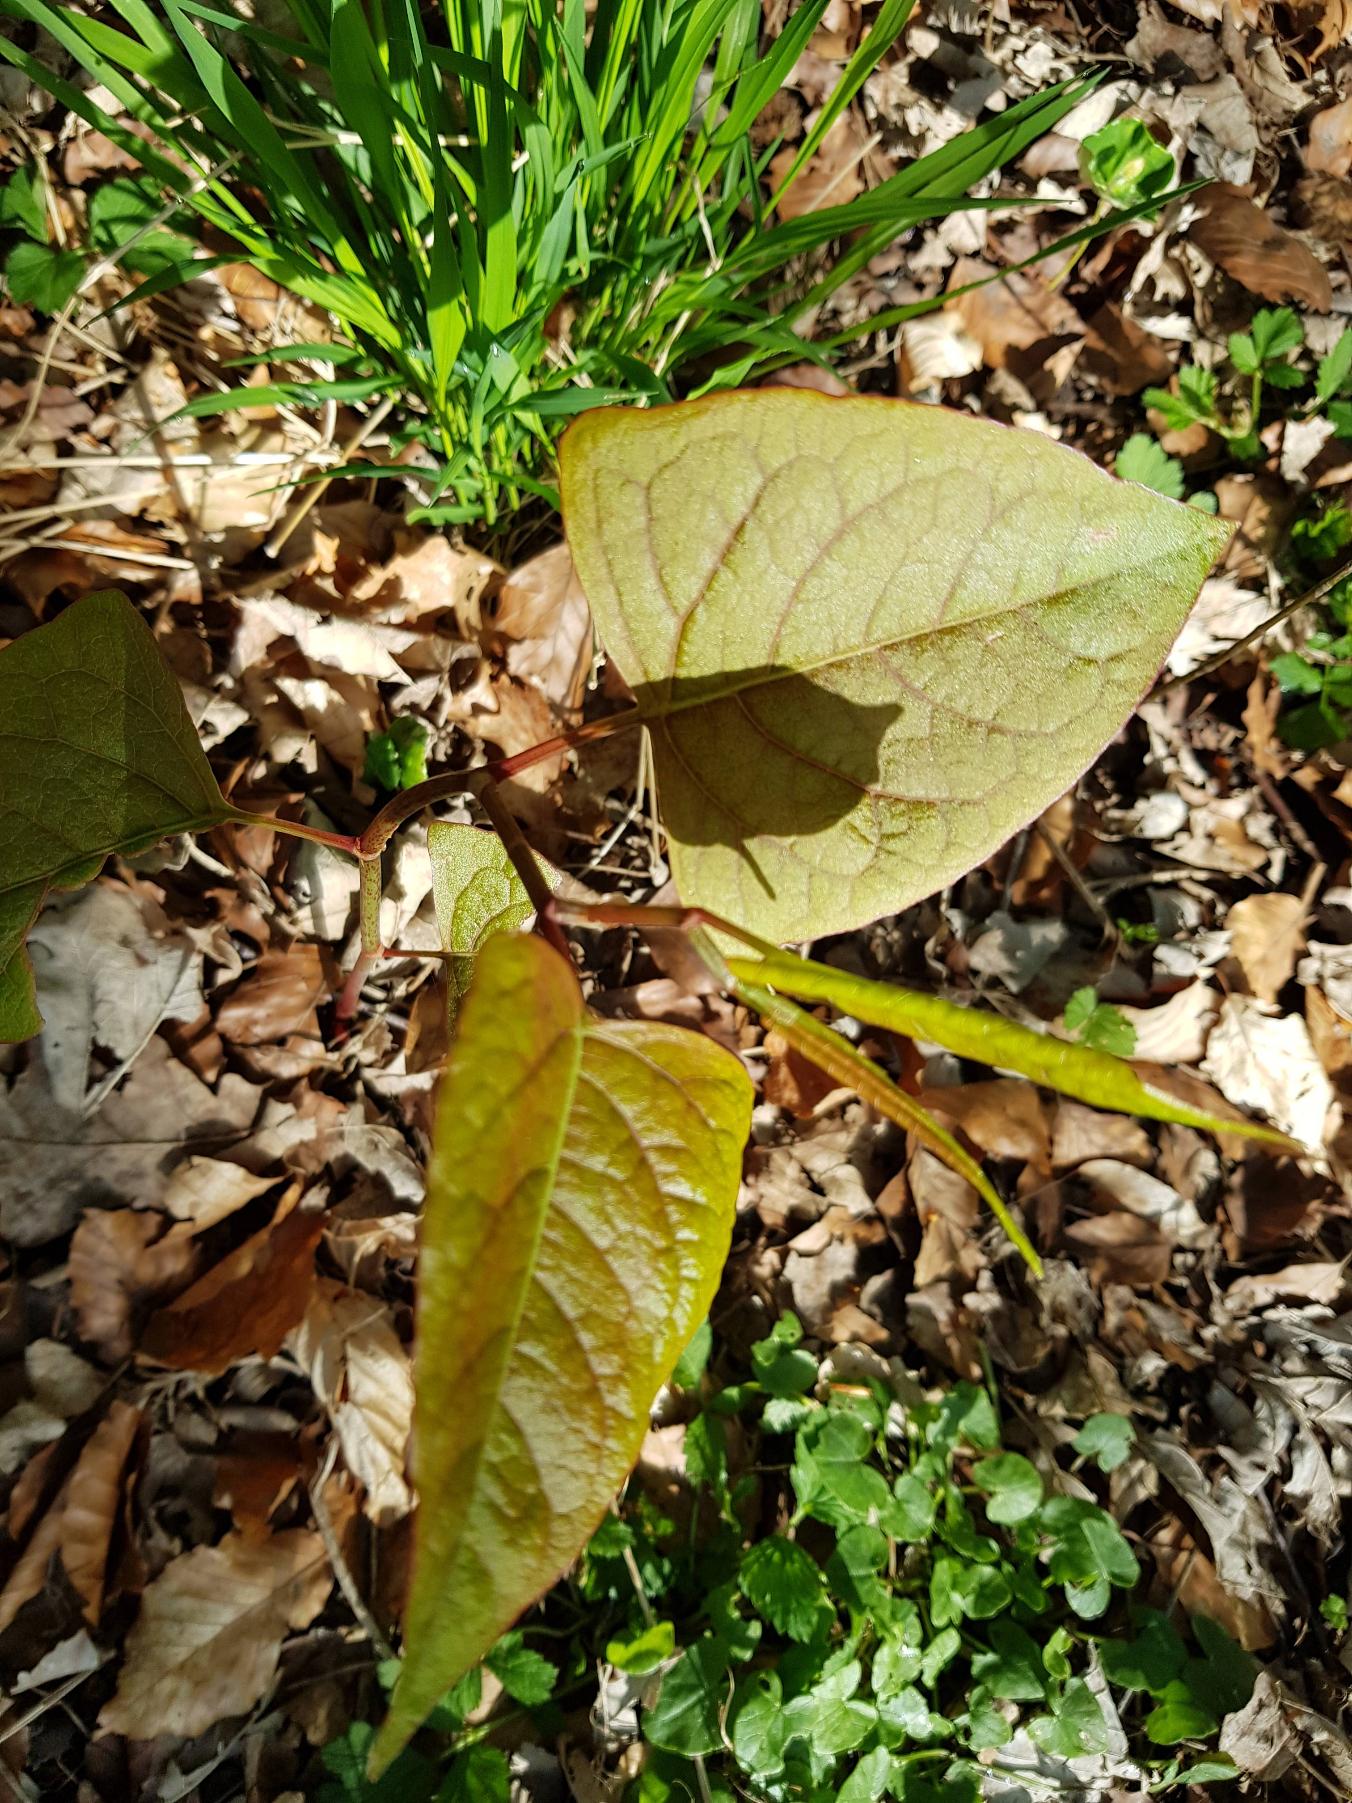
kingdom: Plantae
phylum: Tracheophyta
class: Magnoliopsida
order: Caryophyllales
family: Polygonaceae
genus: Reynoutria
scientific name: Reynoutria japonica
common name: Japan-pileurt
